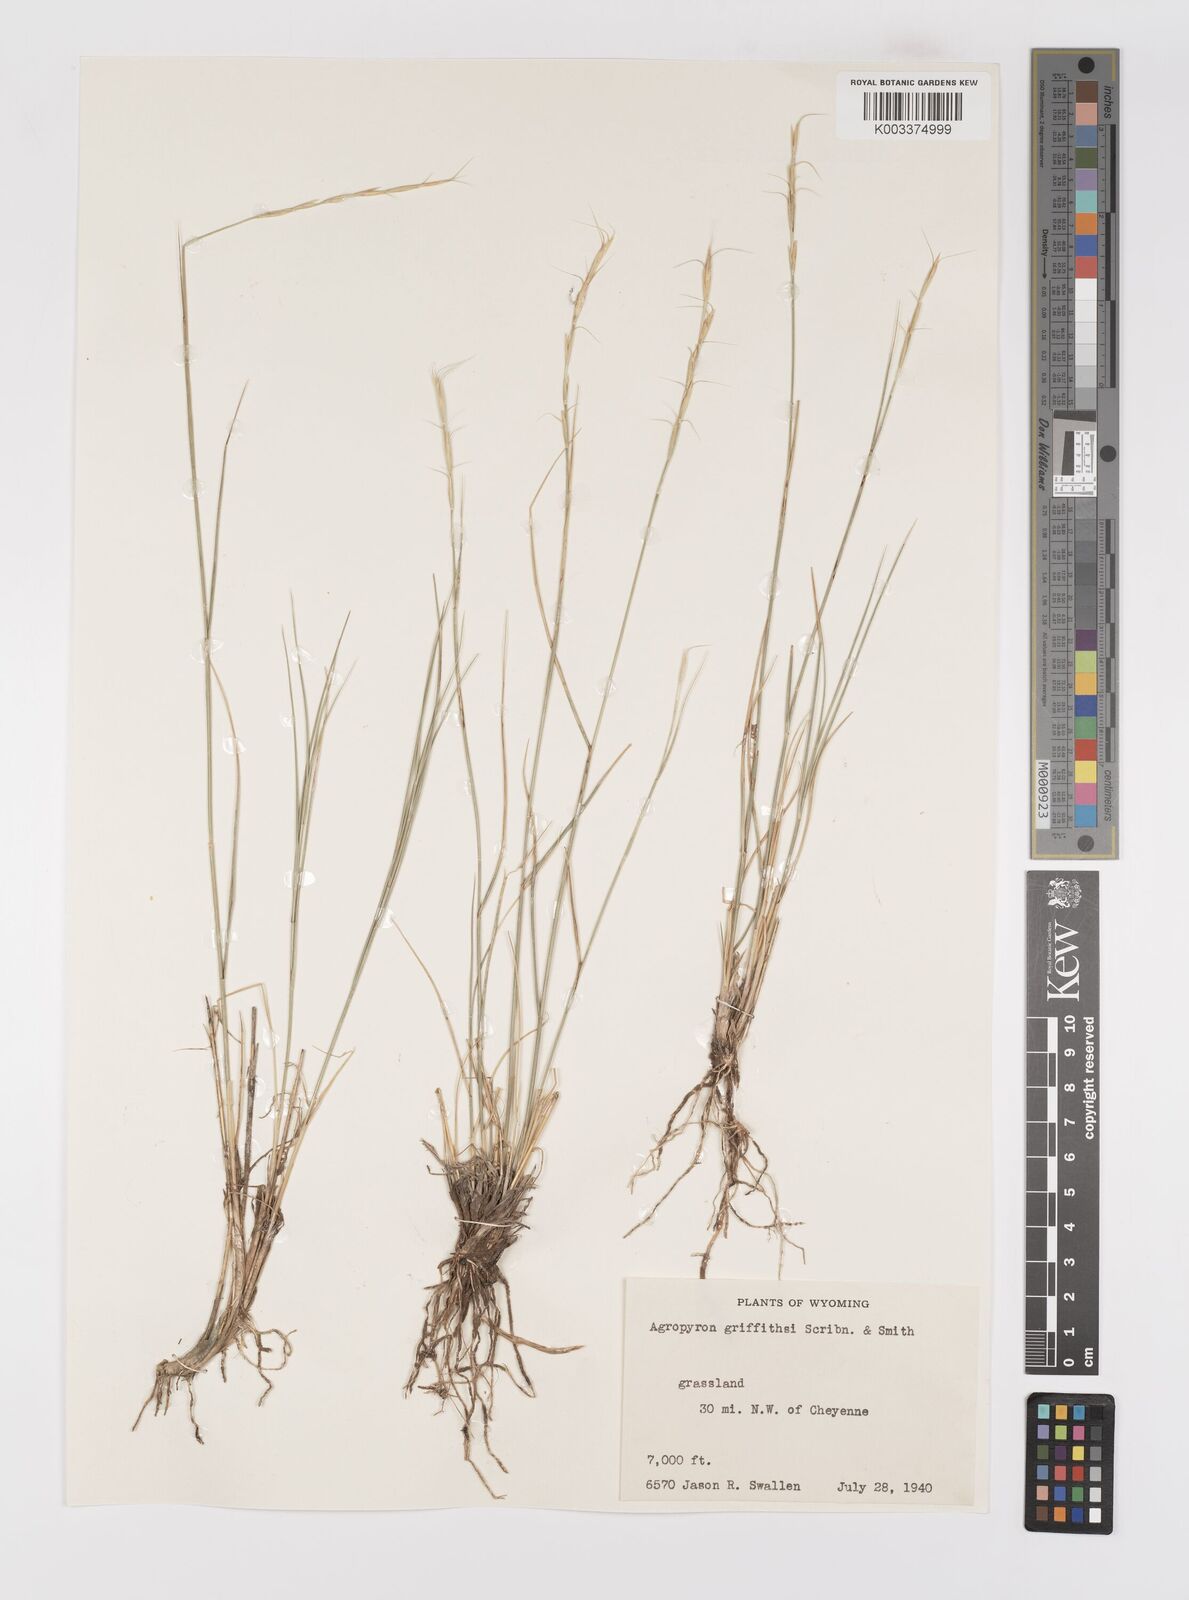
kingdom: Plantae
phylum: Tracheophyta
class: Liliopsida
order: Poales
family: Poaceae
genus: Elymus
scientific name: Elymus albicans
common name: Montana wheatgrass
